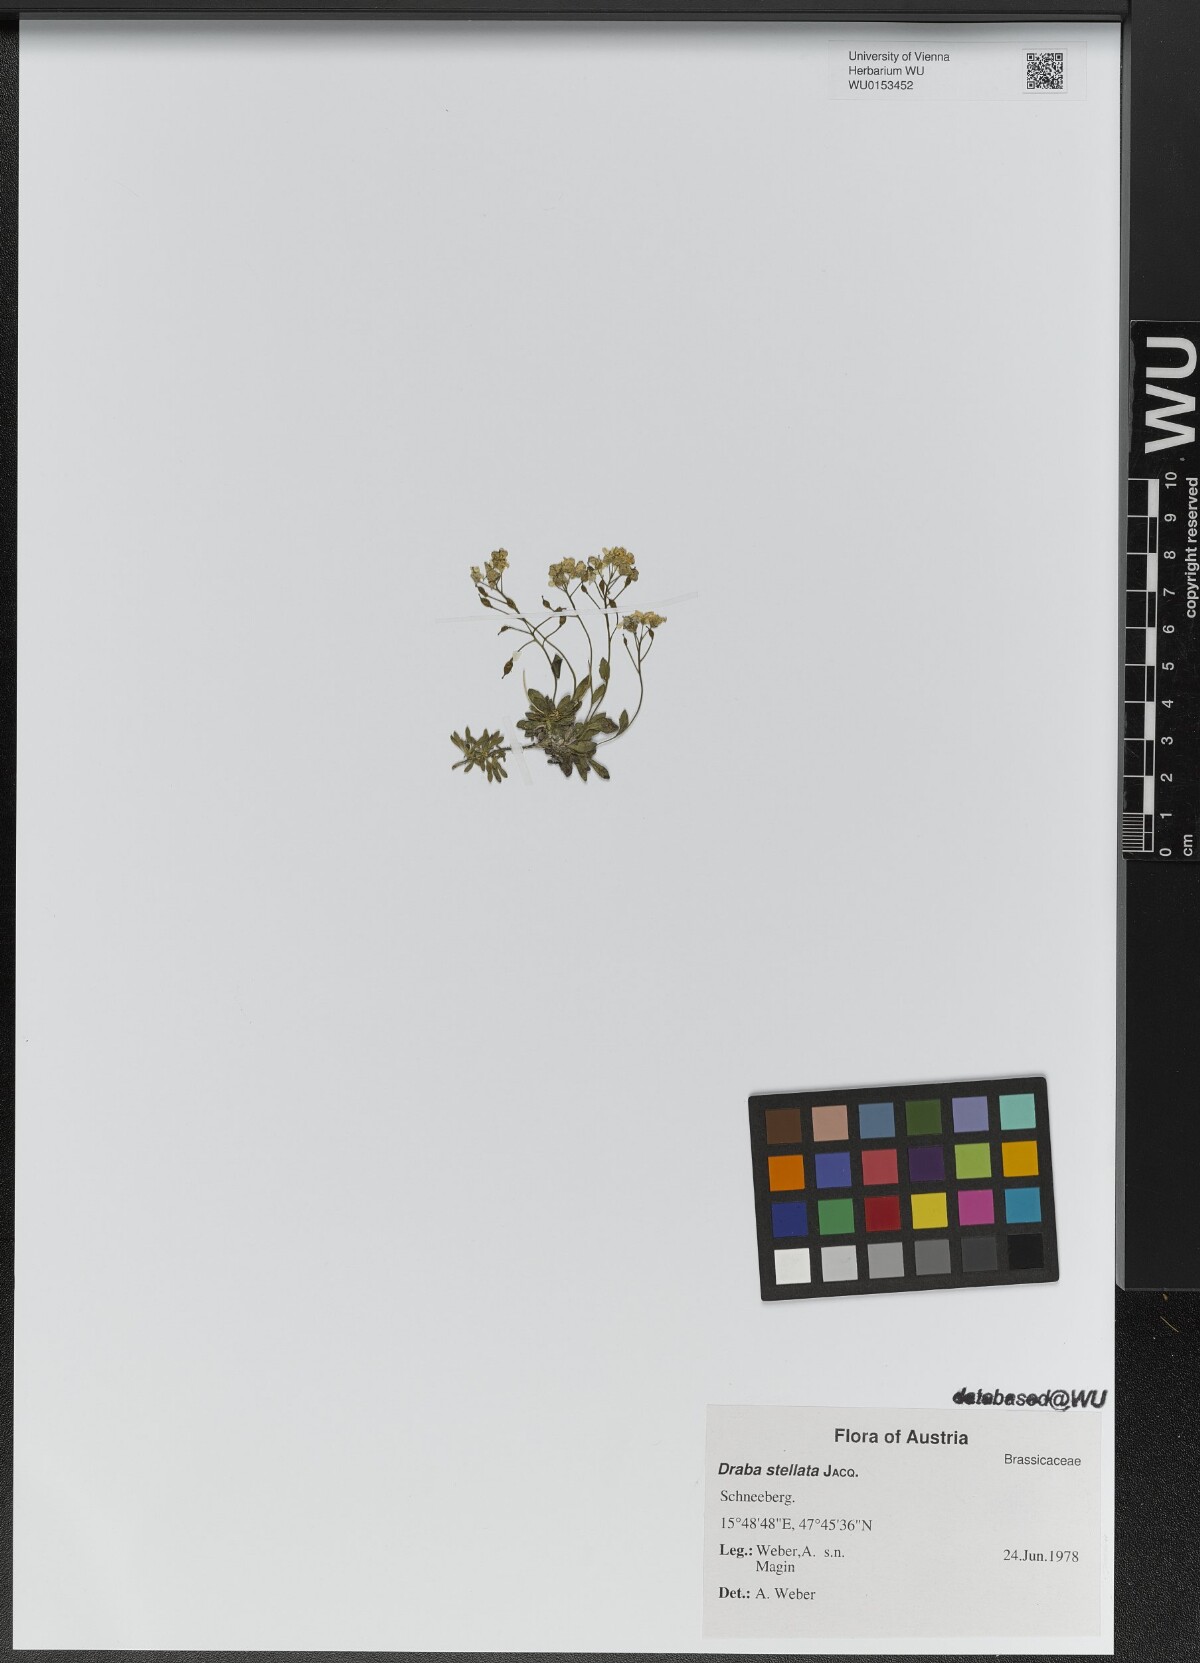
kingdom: Plantae
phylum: Tracheophyta
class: Magnoliopsida
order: Brassicales
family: Brassicaceae
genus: Draba
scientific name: Draba stellata
